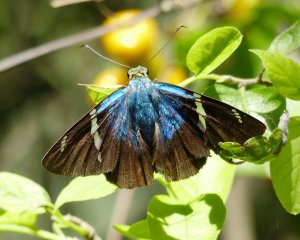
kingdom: Animalia
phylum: Arthropoda
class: Insecta
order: Lepidoptera
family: Hesperiidae
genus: Astraptes
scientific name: Astraptes fulgerator
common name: Two-barred Flasher
